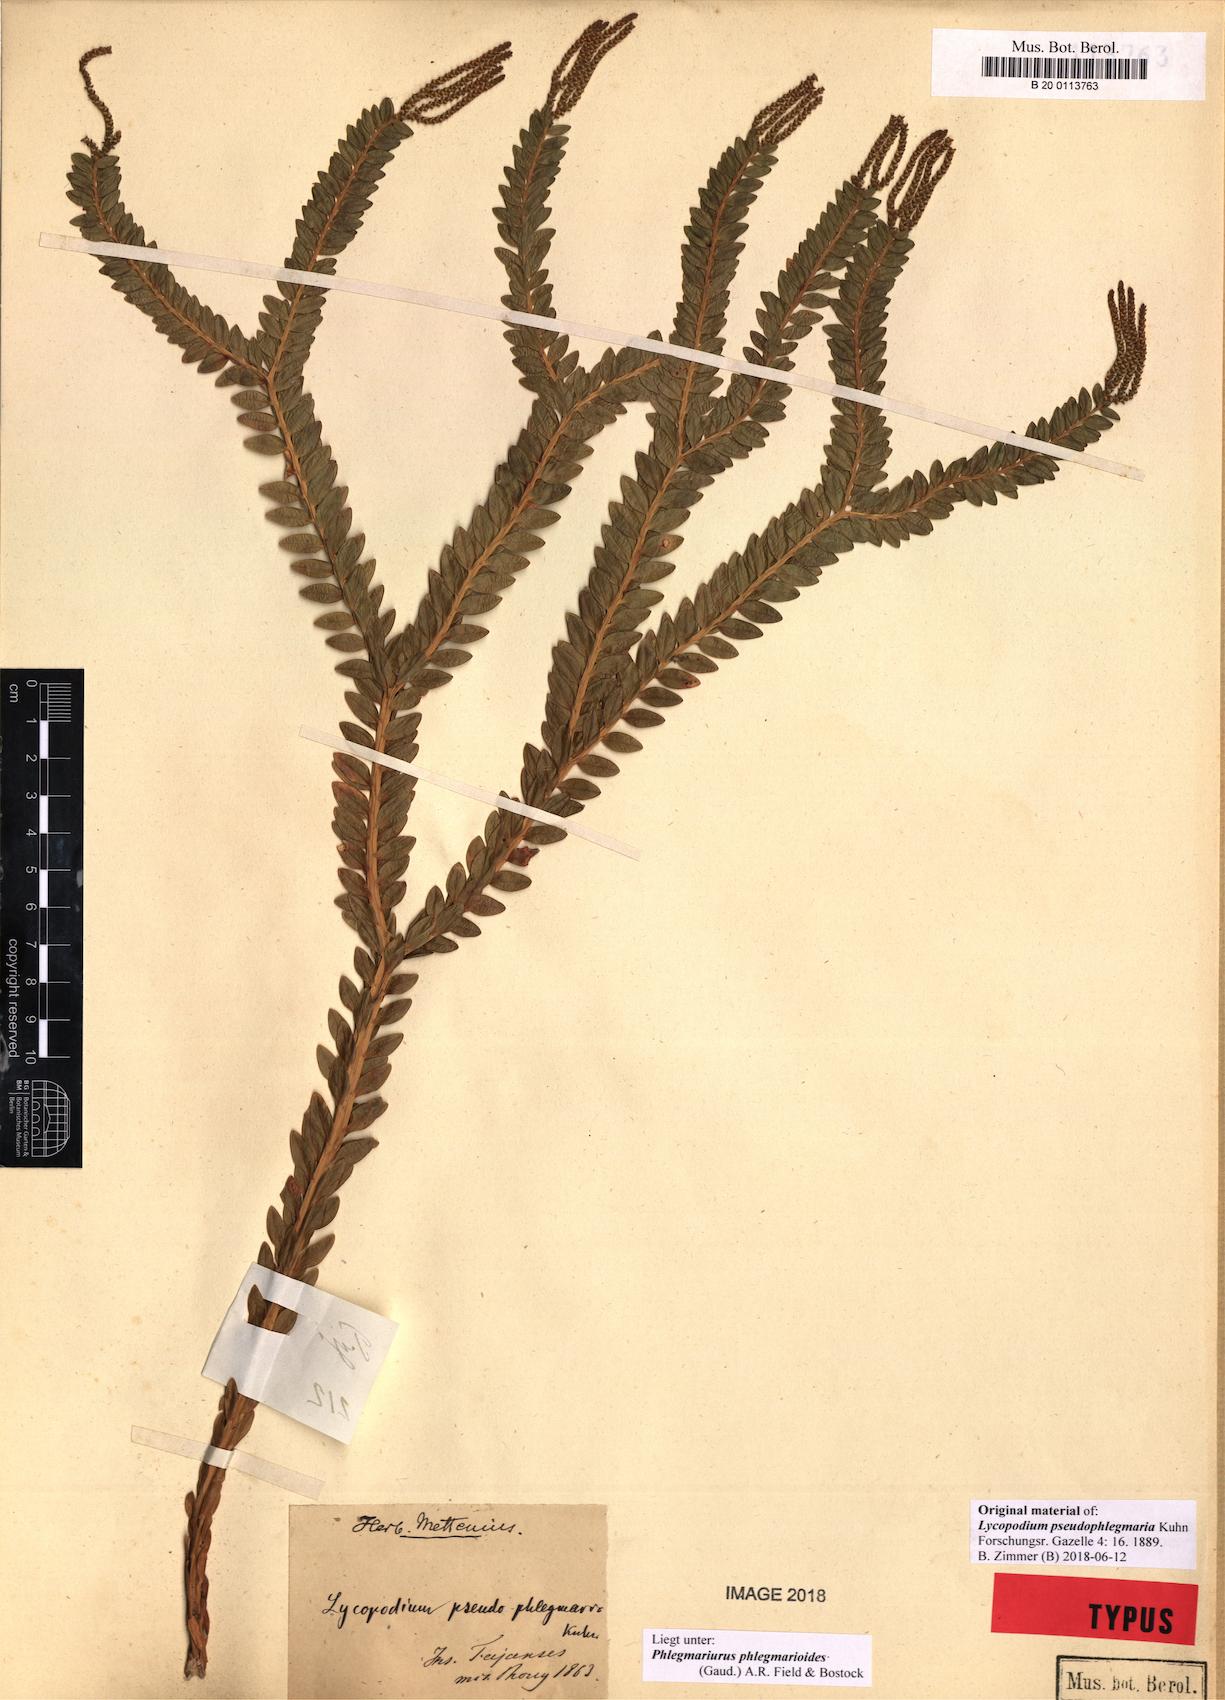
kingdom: Plantae
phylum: Tracheophyta
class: Lycopodiopsida
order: Lycopodiales
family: Lycopodiaceae
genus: Phlegmariurus
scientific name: Phlegmariurus phlegmarioides
